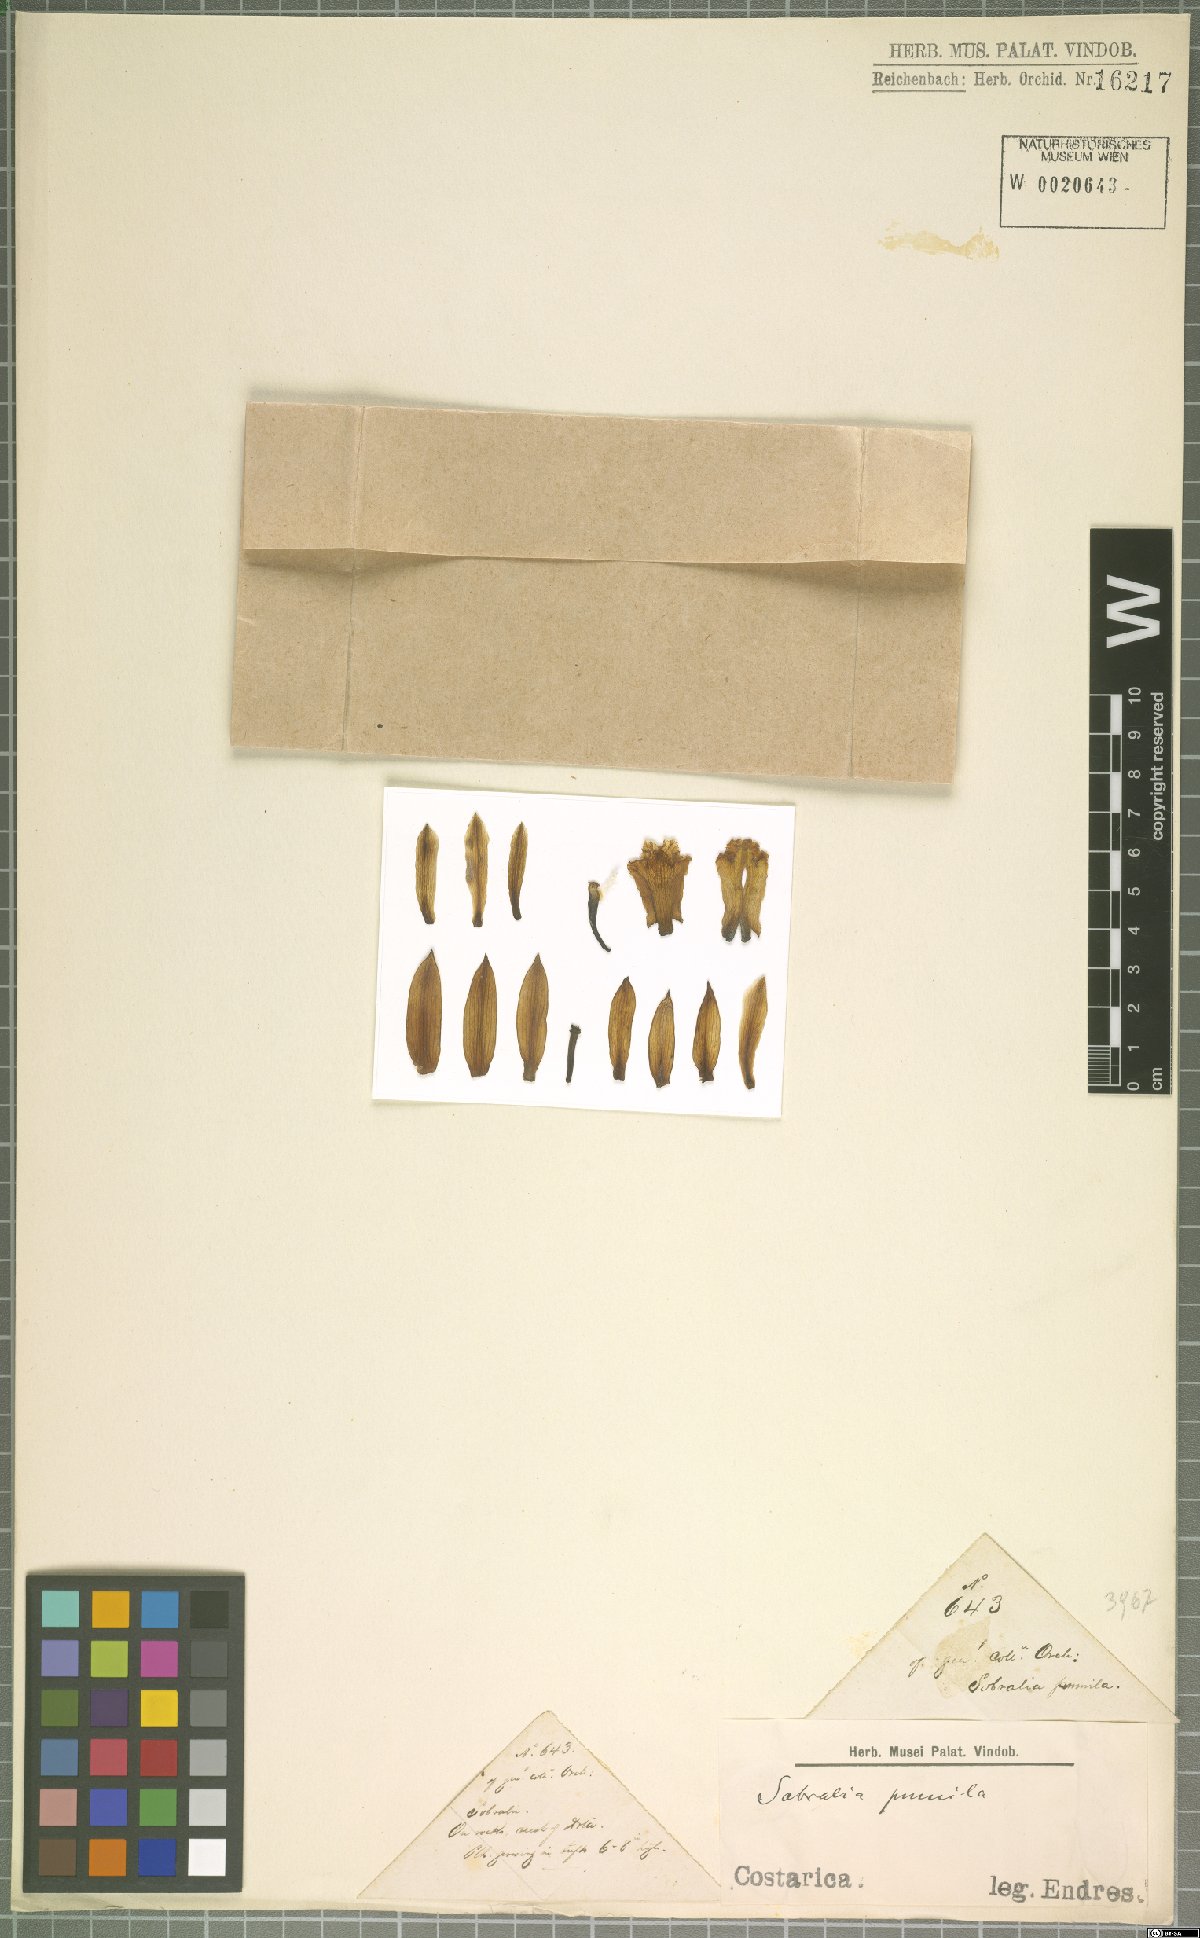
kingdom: Plantae
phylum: Tracheophyta
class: Liliopsida
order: Asparagales
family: Orchidaceae
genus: Sobralia
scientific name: Sobralia pumila
